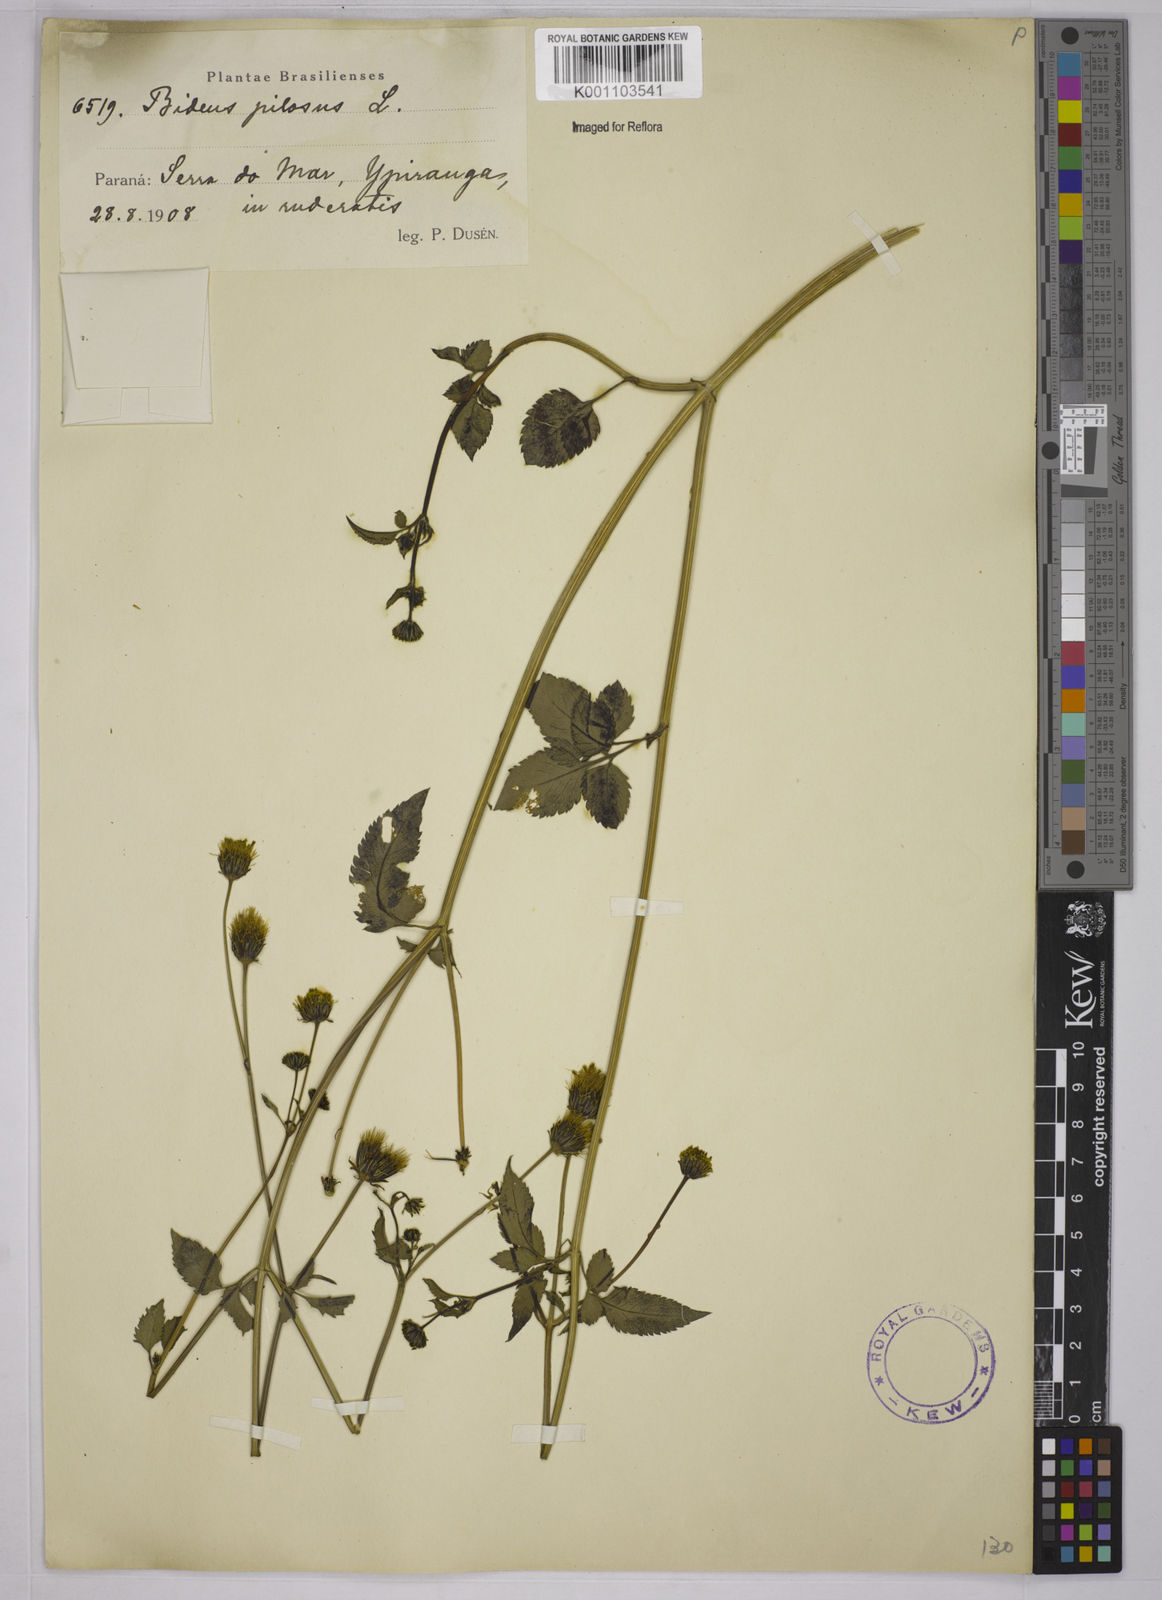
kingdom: Plantae
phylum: Tracheophyta
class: Magnoliopsida
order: Asterales
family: Asteraceae
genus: Bidens
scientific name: Bidens pilosa
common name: Black-jack
